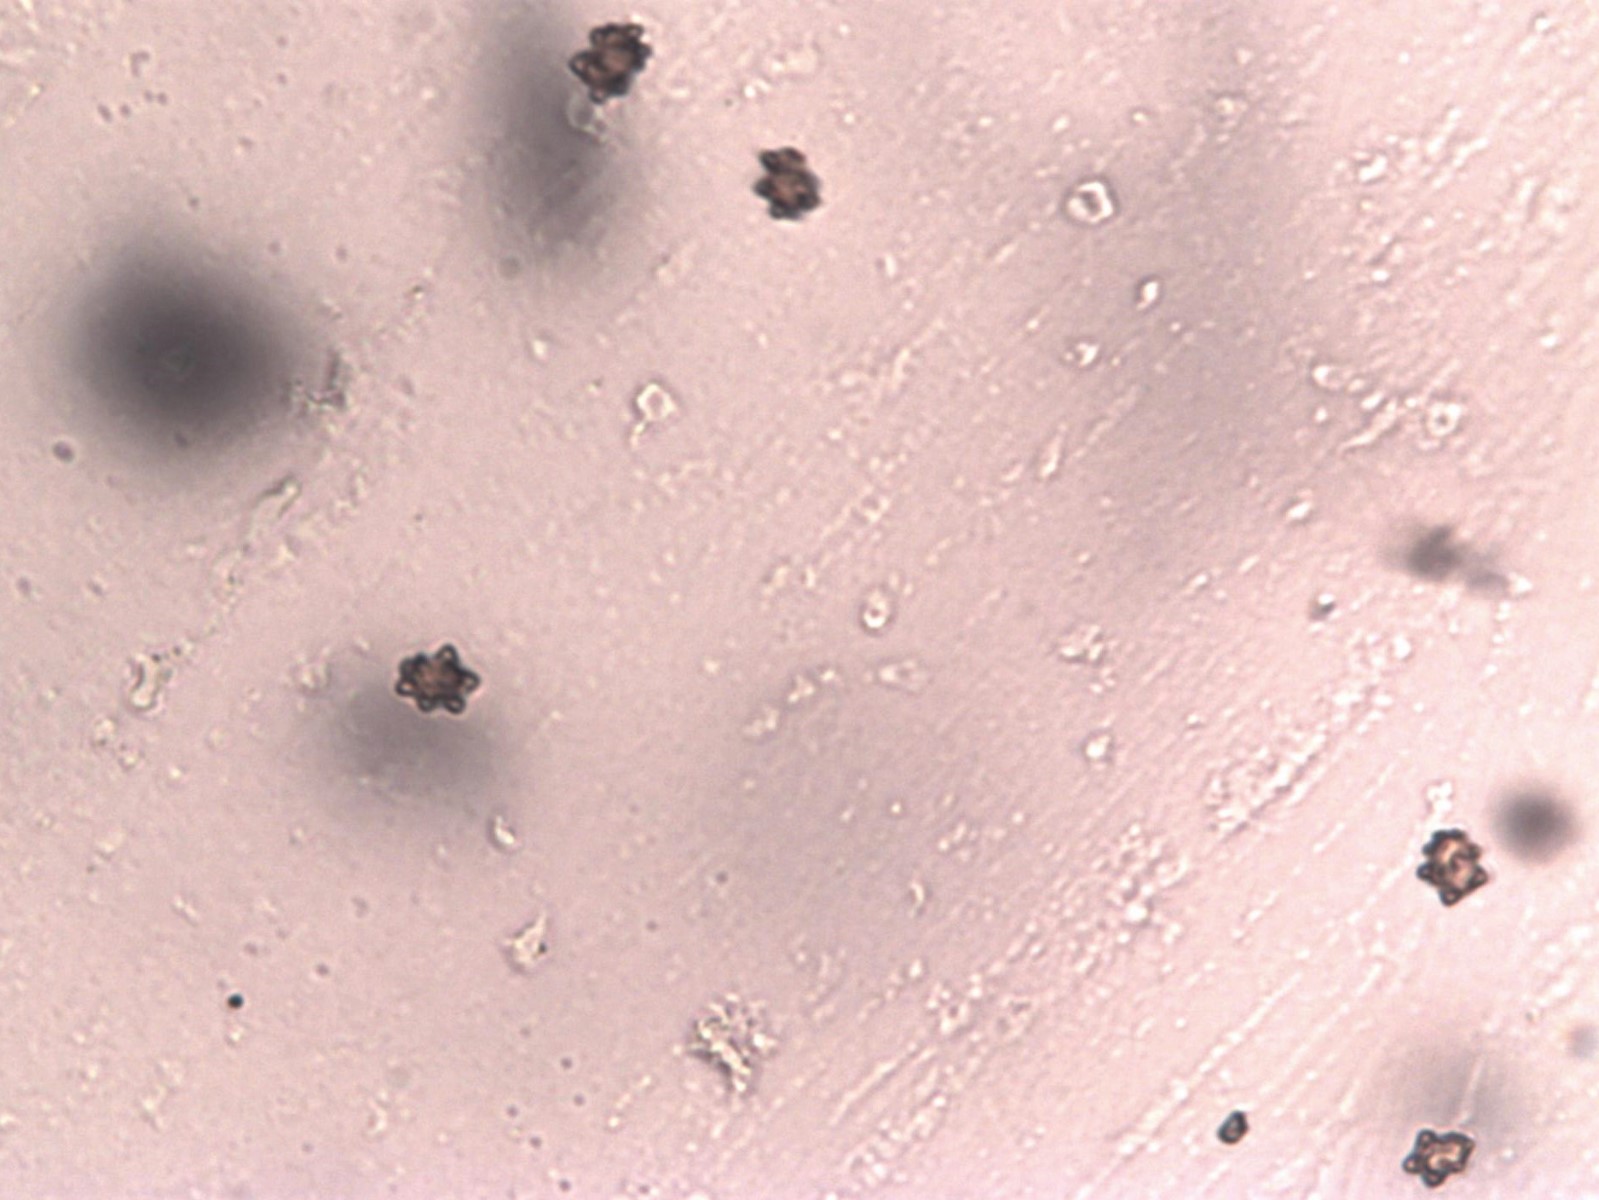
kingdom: Fungi
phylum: Basidiomycota
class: Agaricomycetes
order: Agaricales
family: Inocybaceae
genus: Inocybe
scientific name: Inocybe asterospora
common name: stjernesporet trævlhat
